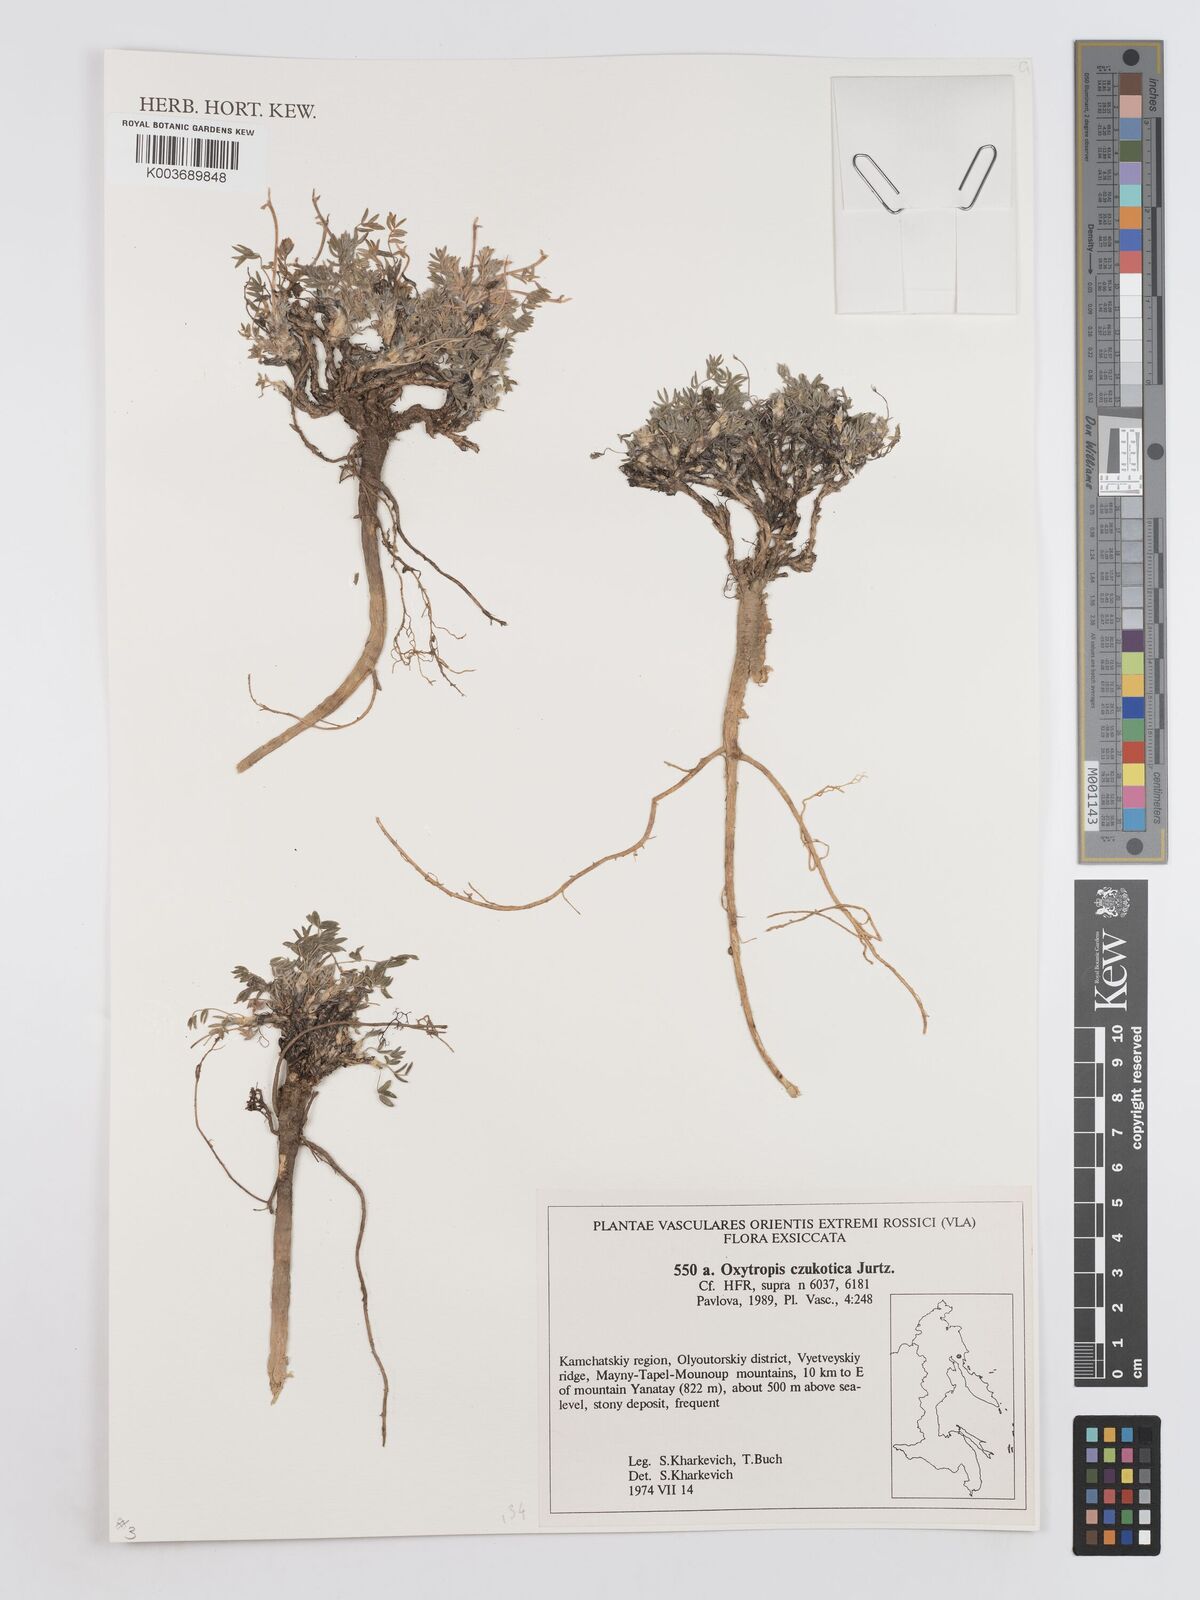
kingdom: Plantae
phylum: Tracheophyta
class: Magnoliopsida
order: Fabales
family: Fabaceae
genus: Oxytropis
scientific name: Oxytropis czukotica
